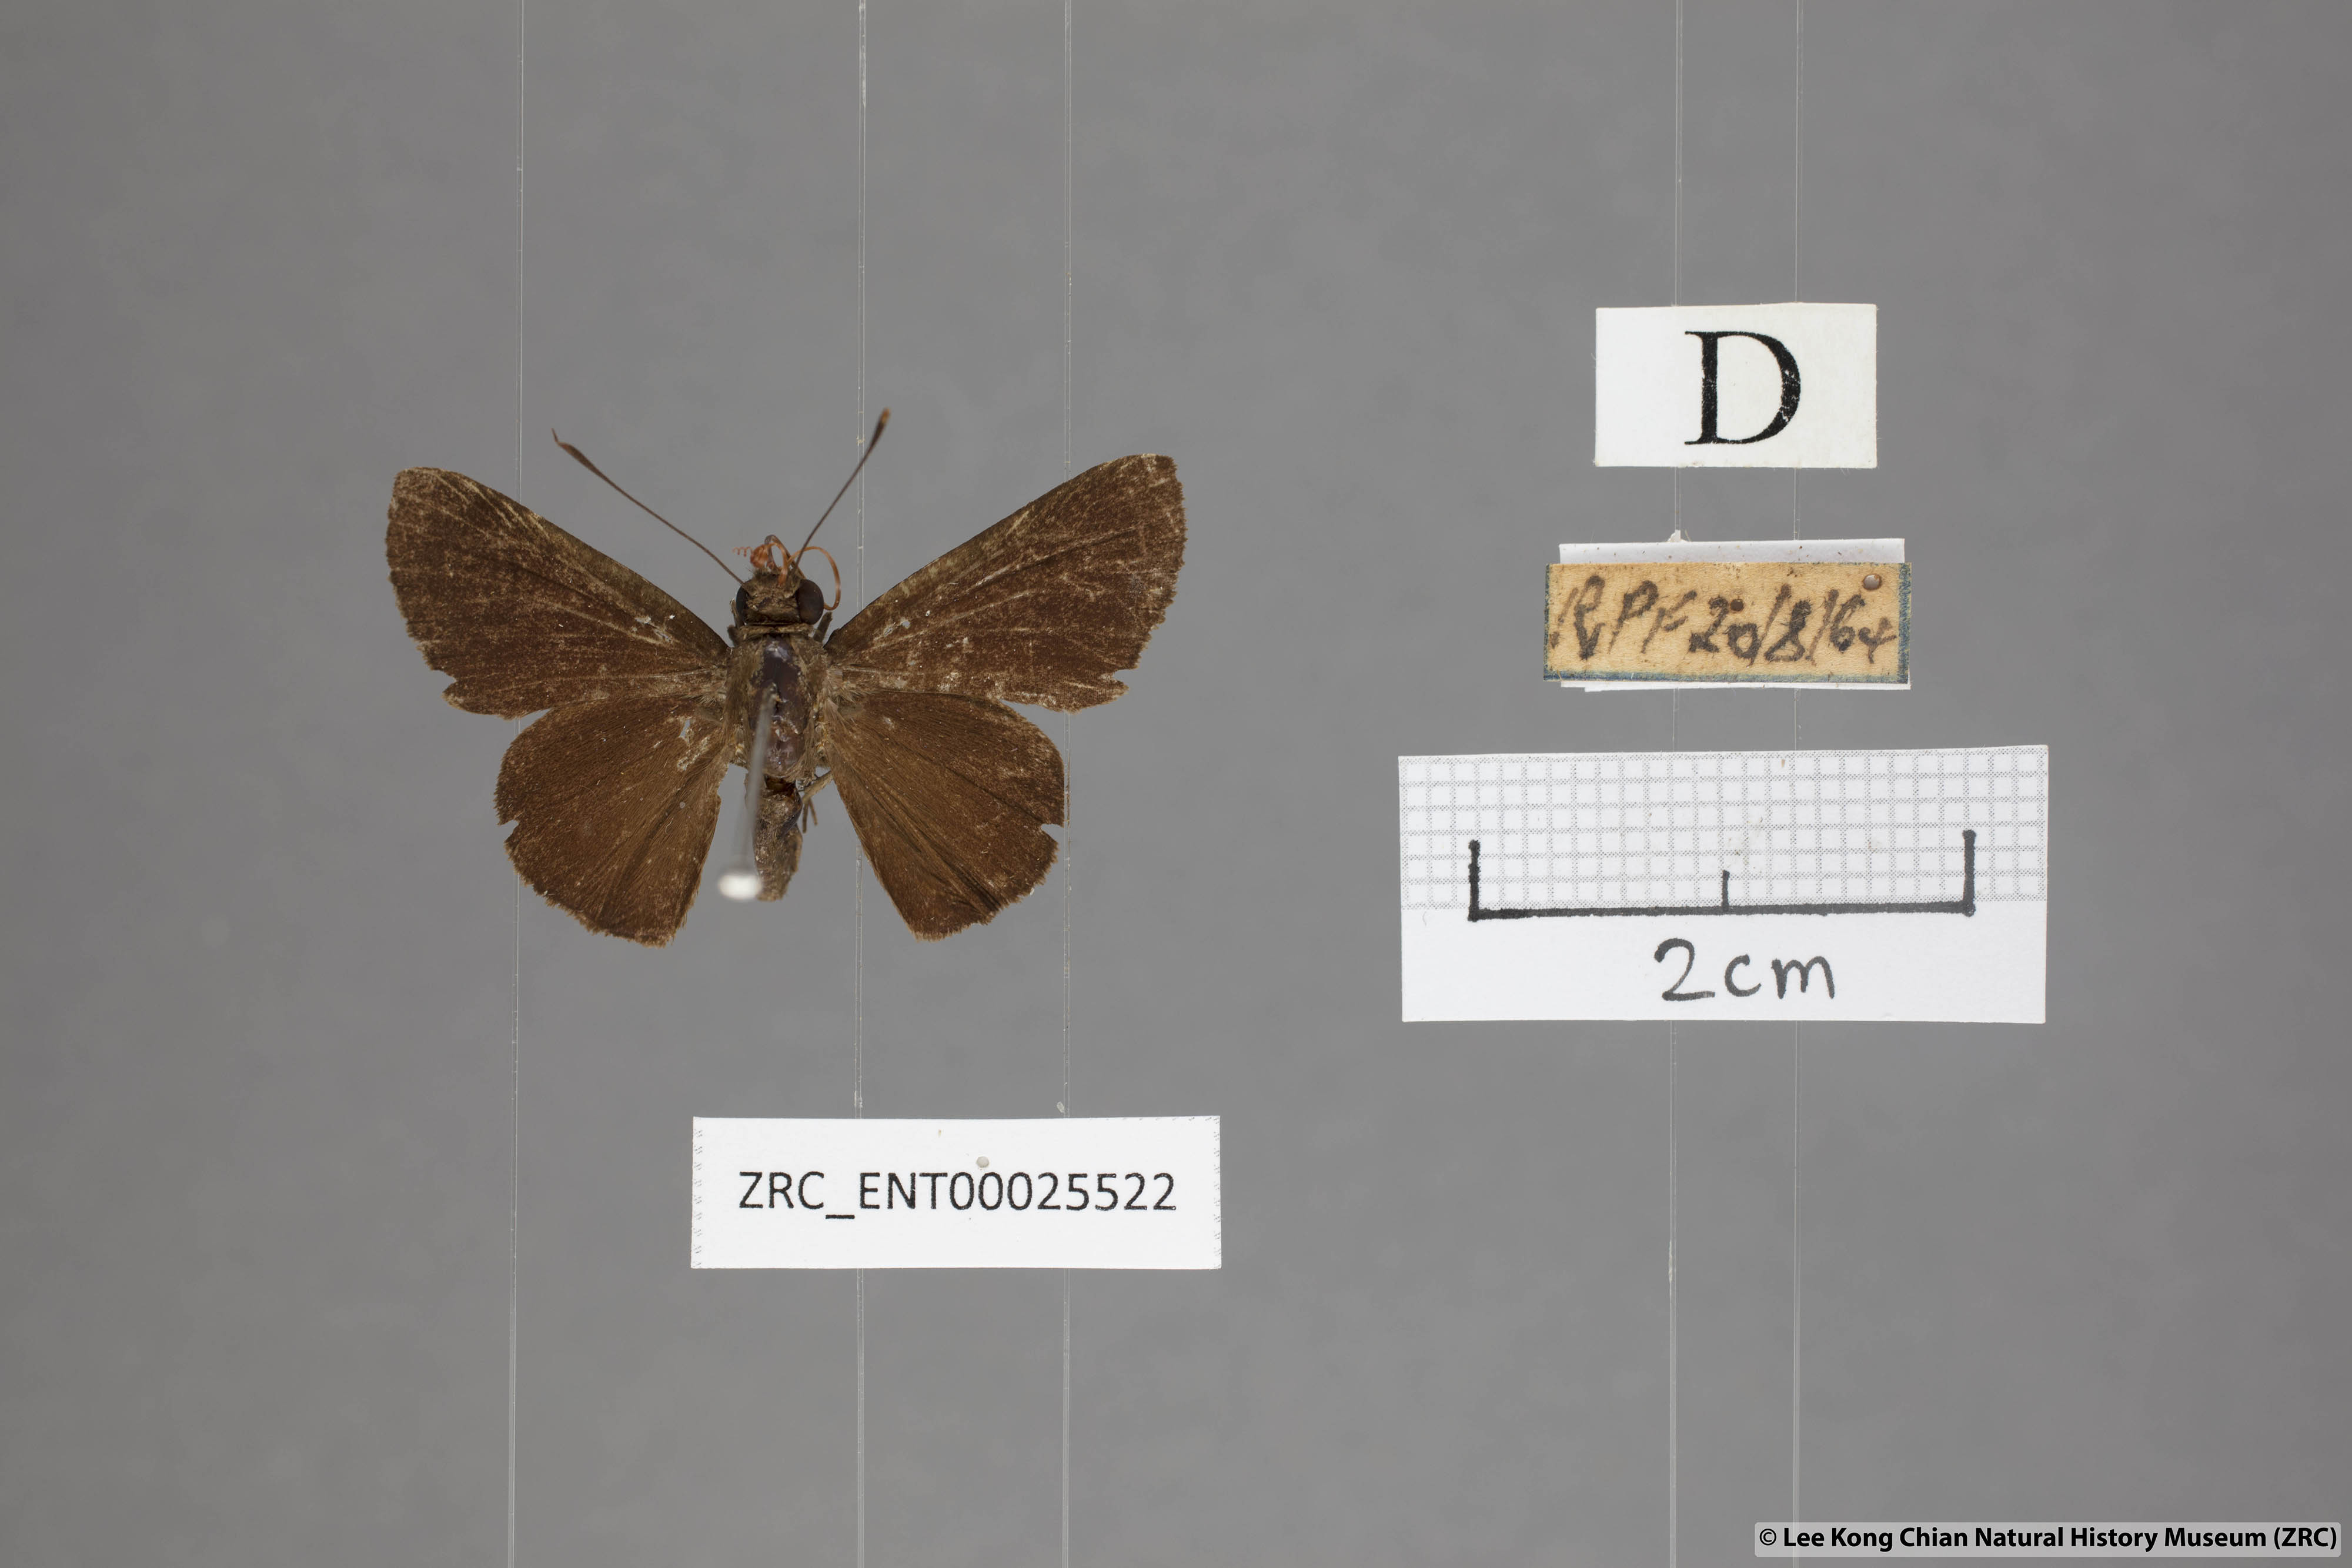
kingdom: Animalia
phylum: Arthropoda
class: Insecta
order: Lepidoptera
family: Hesperiidae
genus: Quedara
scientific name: Quedara monteithi
